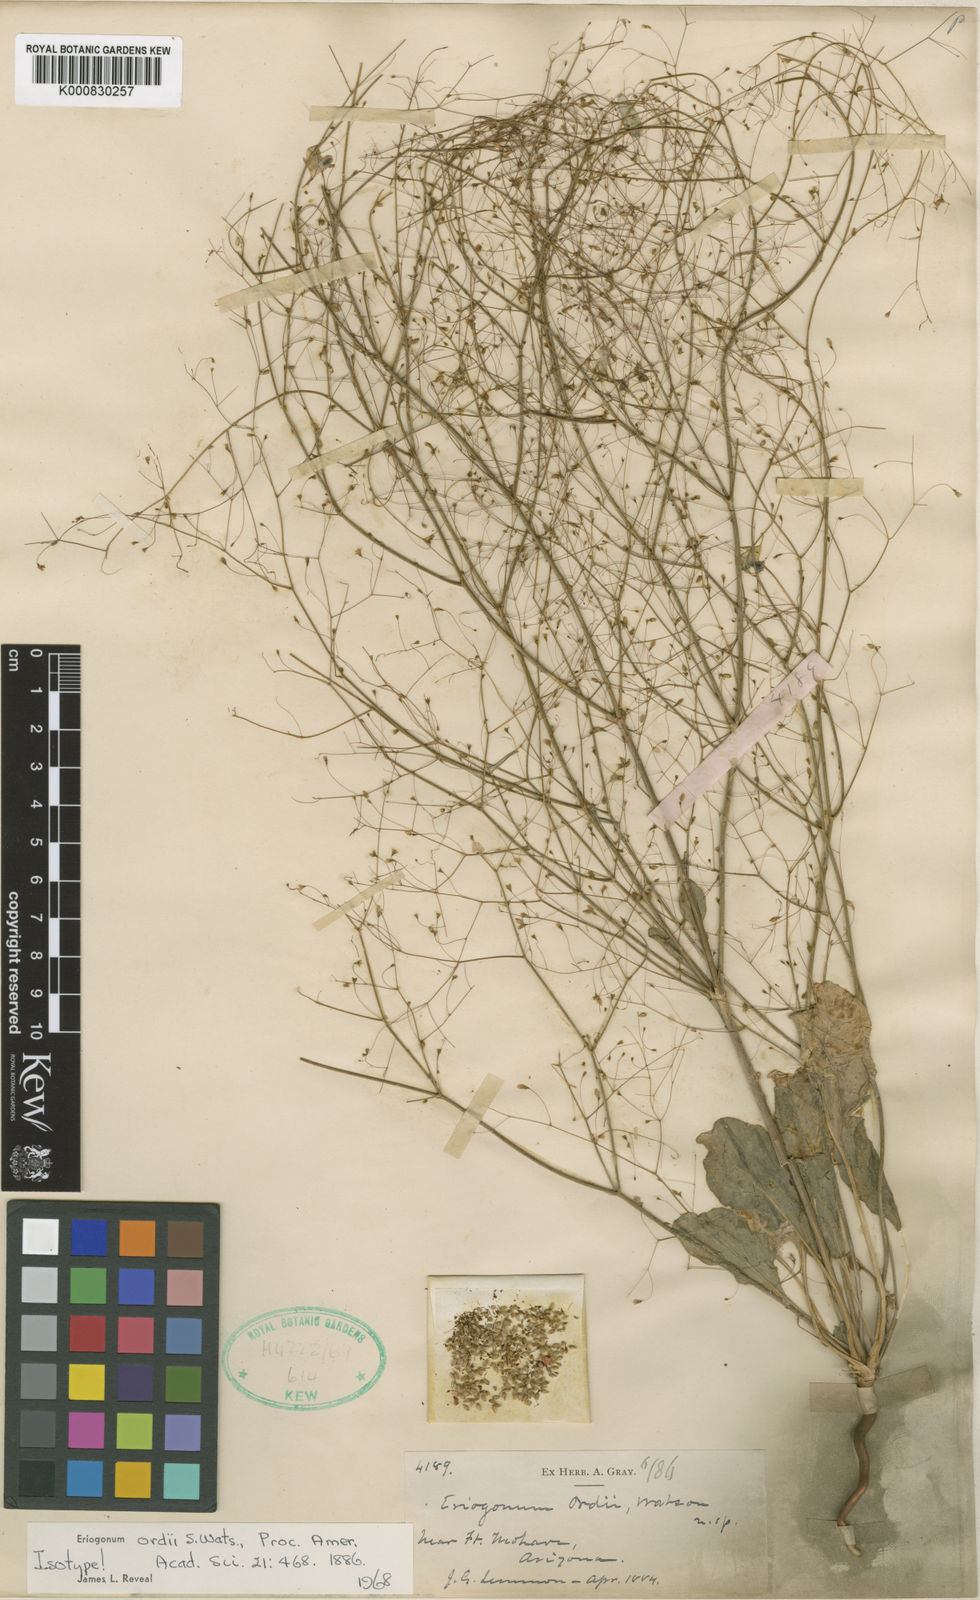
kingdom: Plantae
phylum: Tracheophyta
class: Magnoliopsida
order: Caryophyllales
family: Polygonaceae
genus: Eriogonum
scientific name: Eriogonum ordii
